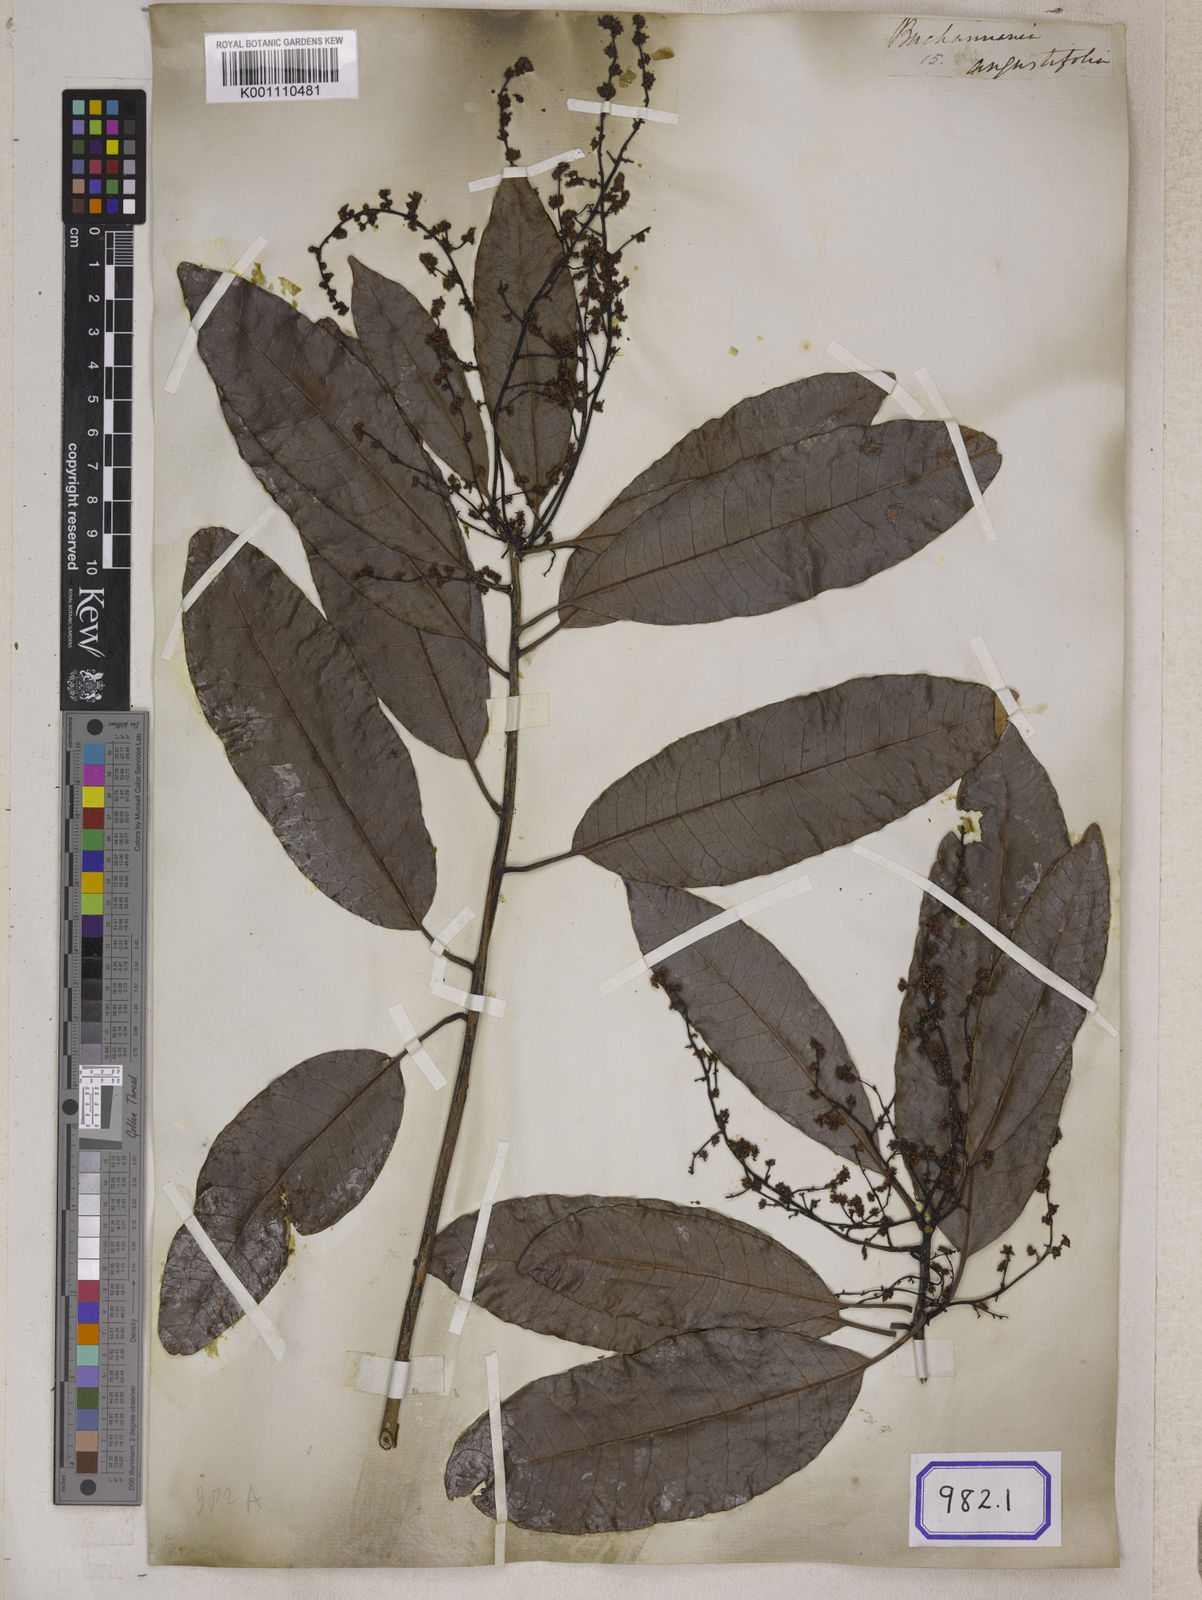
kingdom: Plantae
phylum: Tracheophyta
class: Magnoliopsida
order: Sapindales
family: Anacardiaceae
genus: Buchanania
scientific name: Buchanania axillaris
